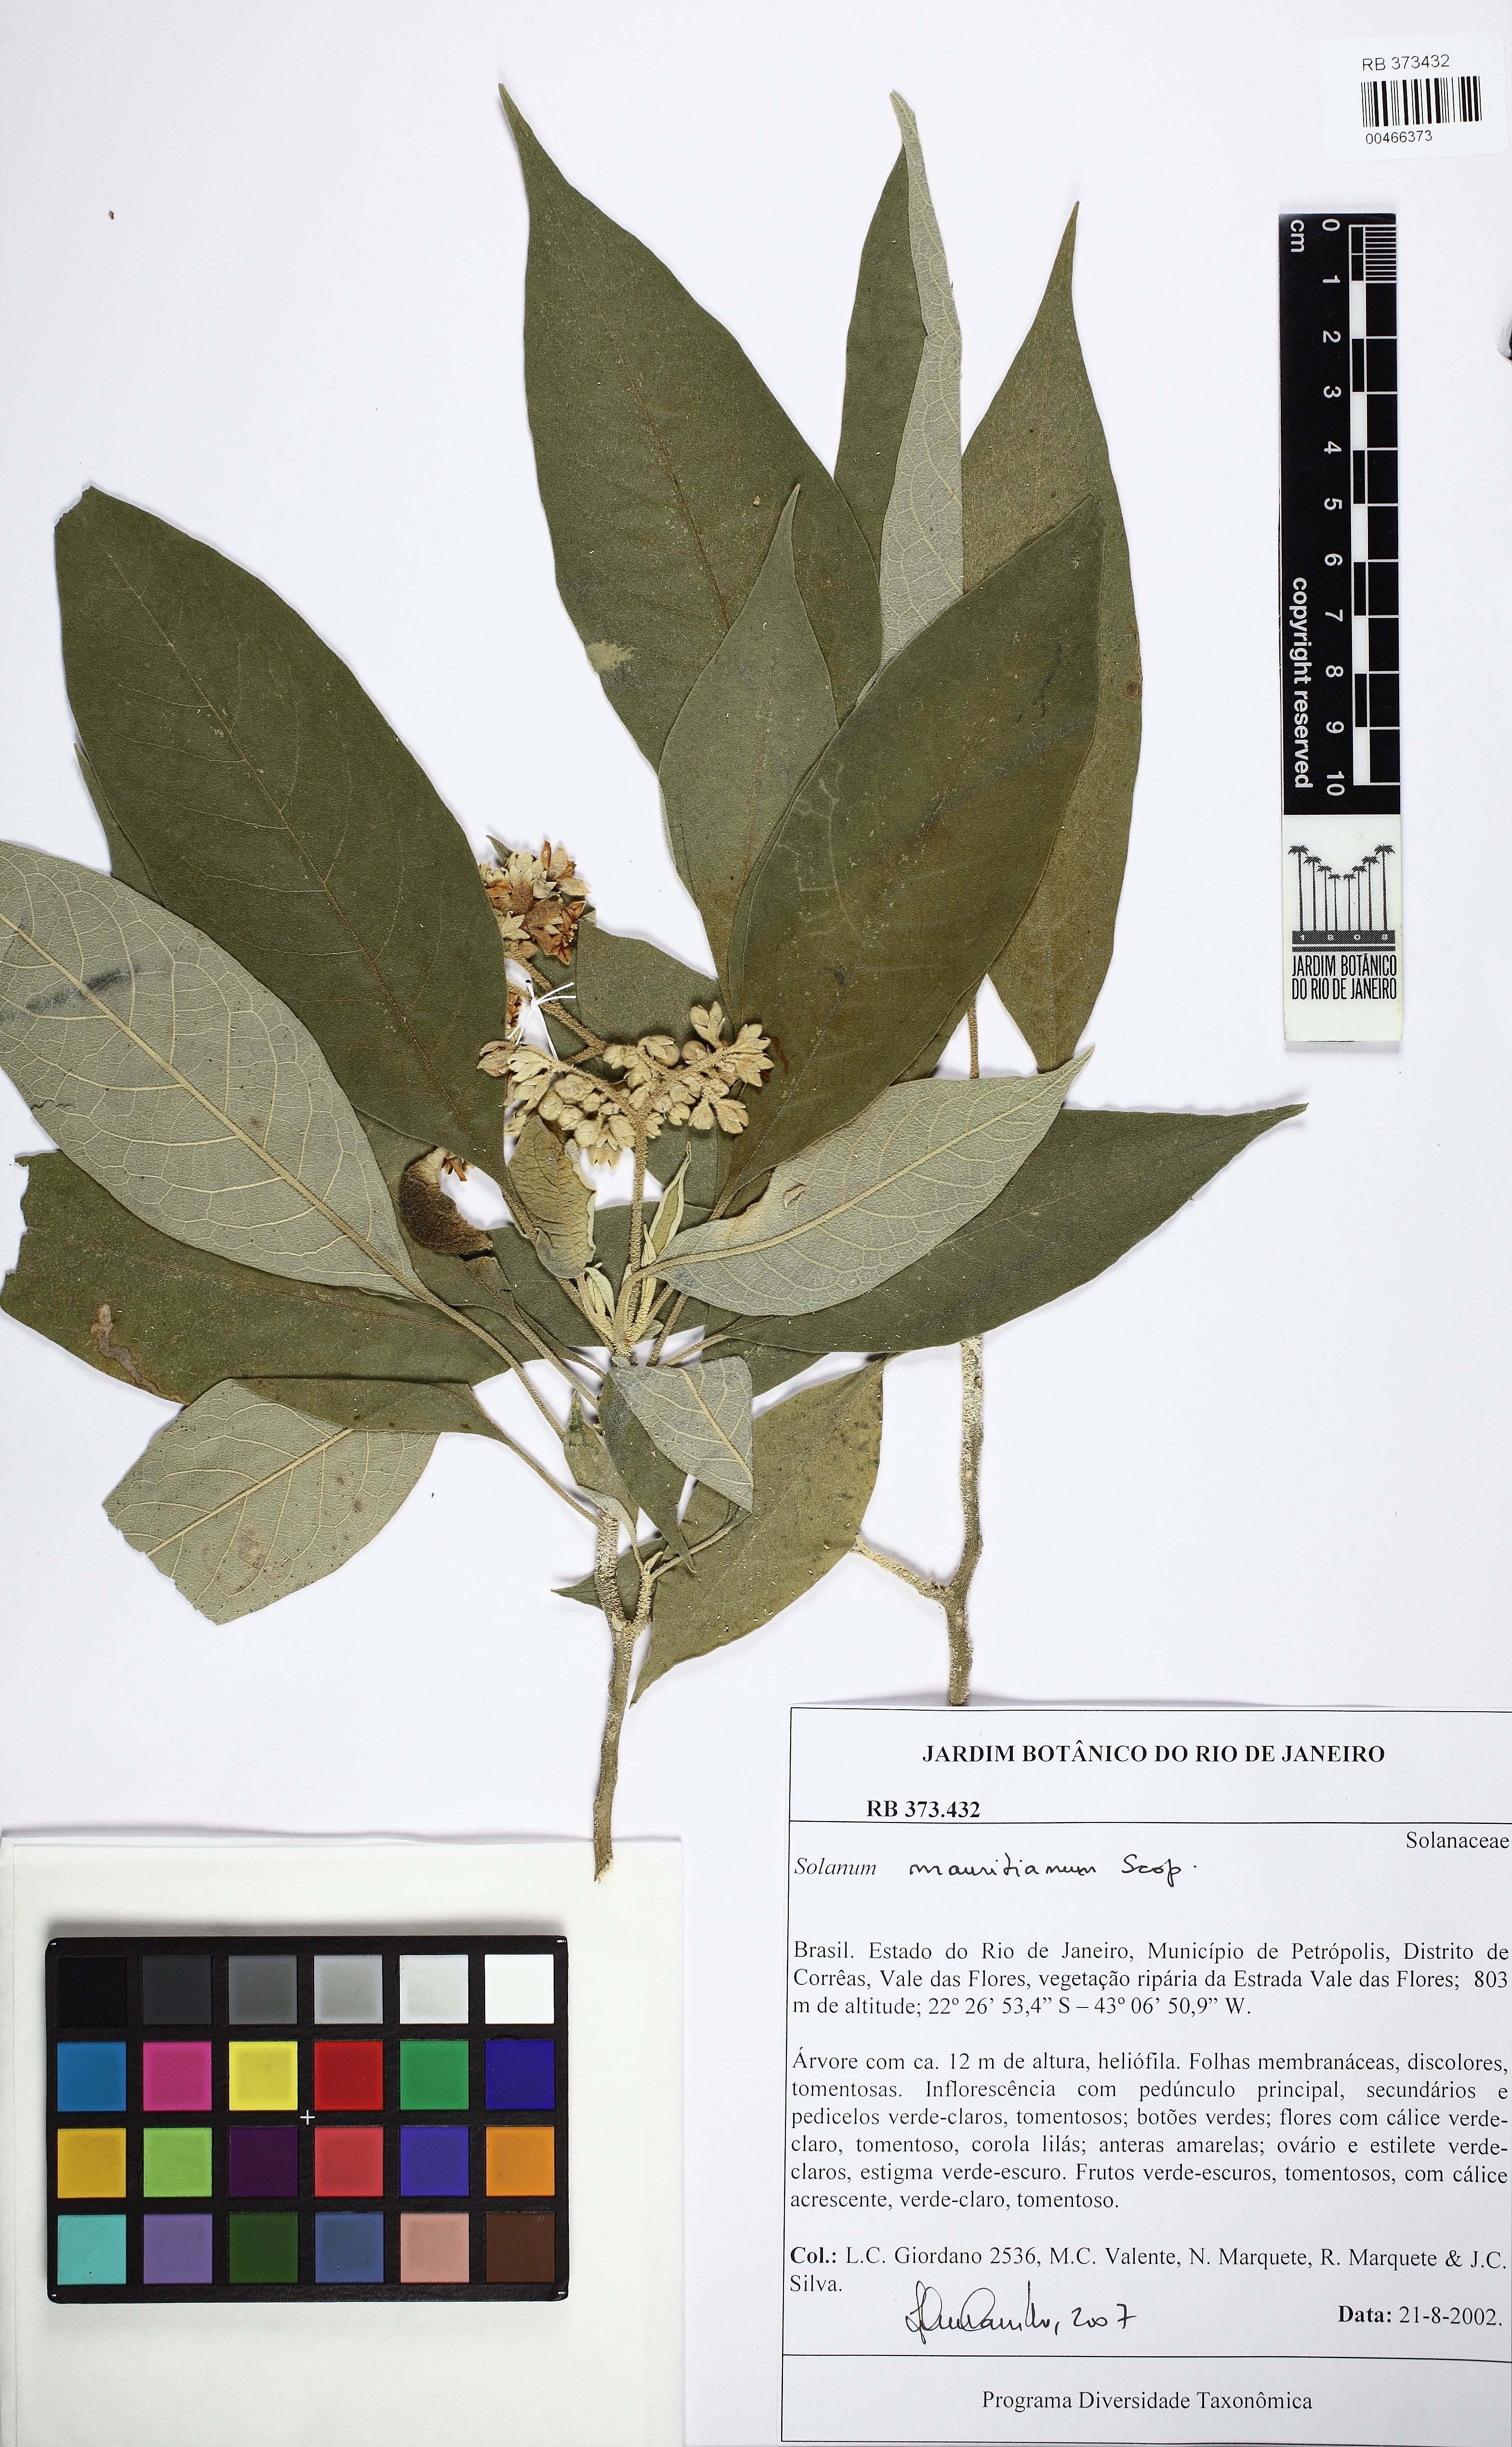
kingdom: Plantae
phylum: Tracheophyta
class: Magnoliopsida
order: Solanales
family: Solanaceae
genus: Solanum
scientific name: Solanum mauritianum
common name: Earleaf nightshade
